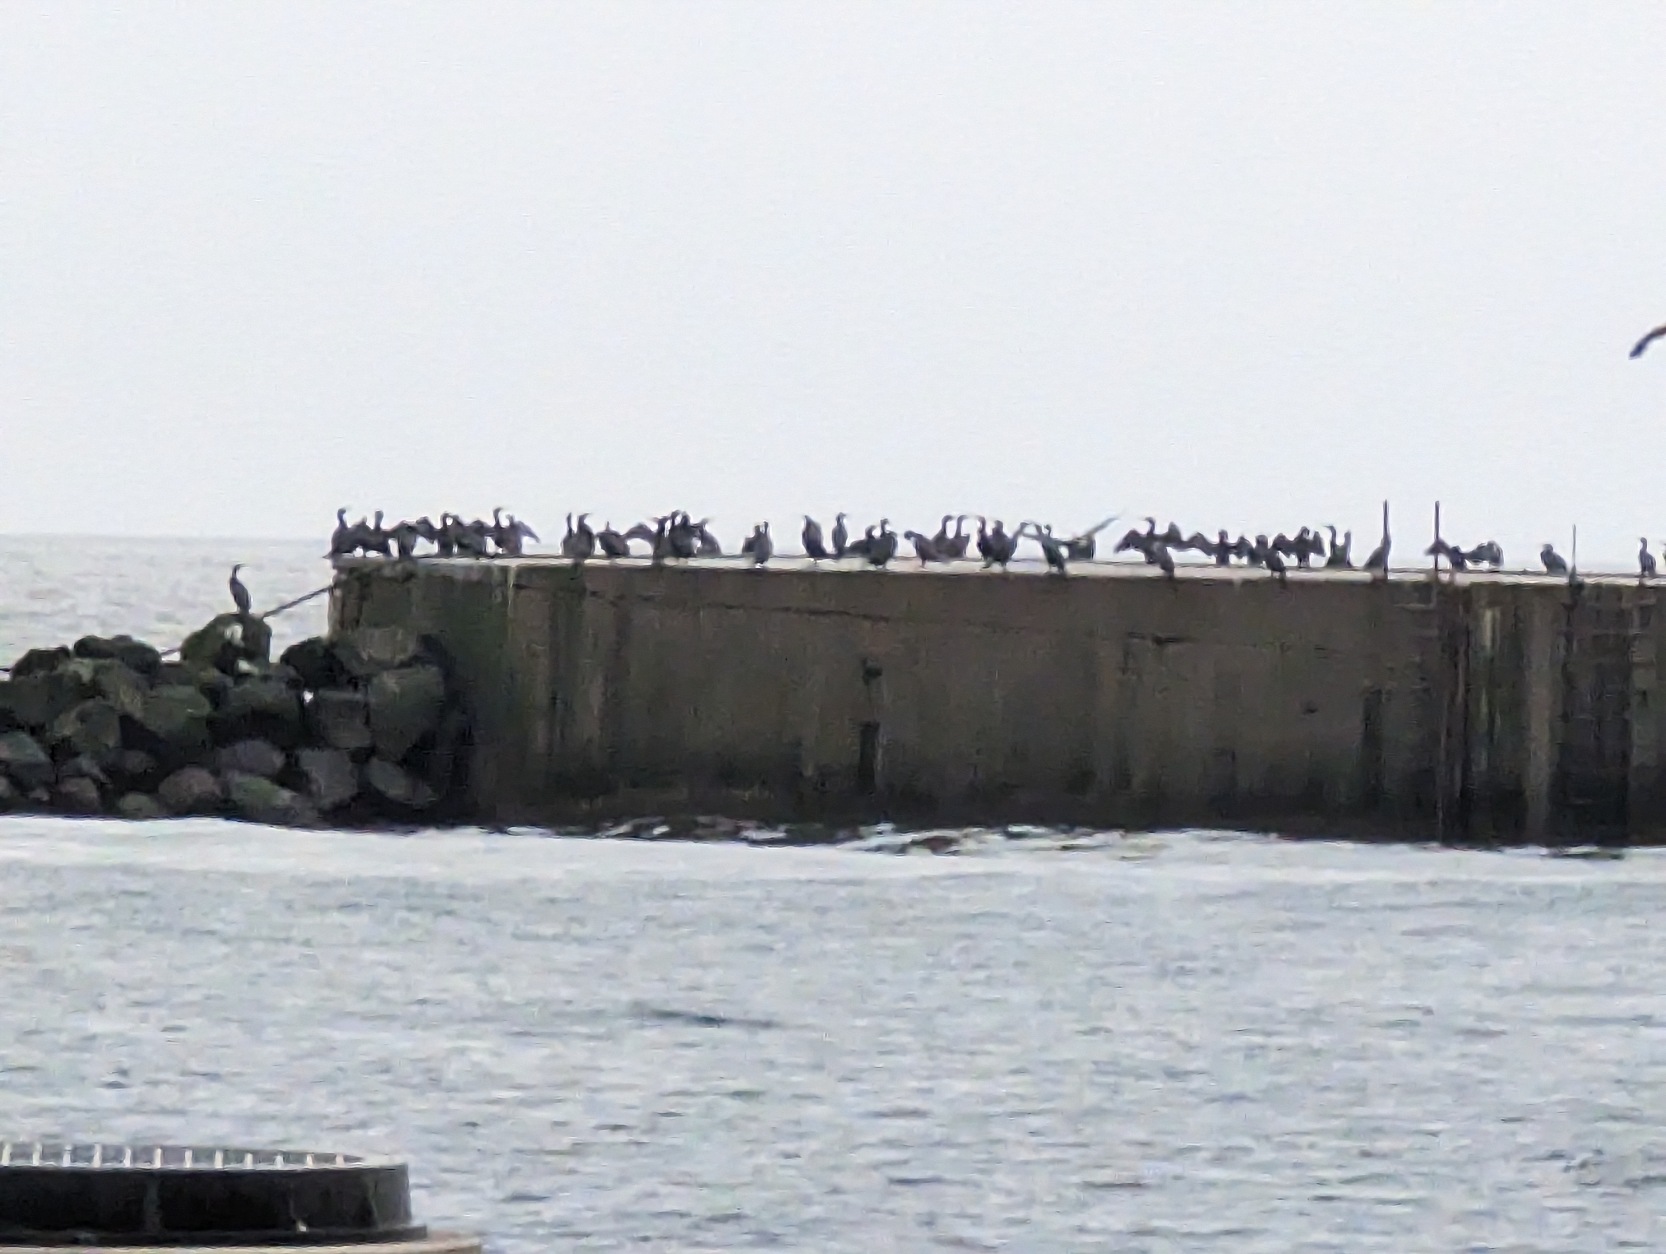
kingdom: Animalia
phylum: Chordata
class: Aves
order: Suliformes
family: Phalacrocoracidae
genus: Phalacrocorax
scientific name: Phalacrocorax carbo
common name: Skarv
